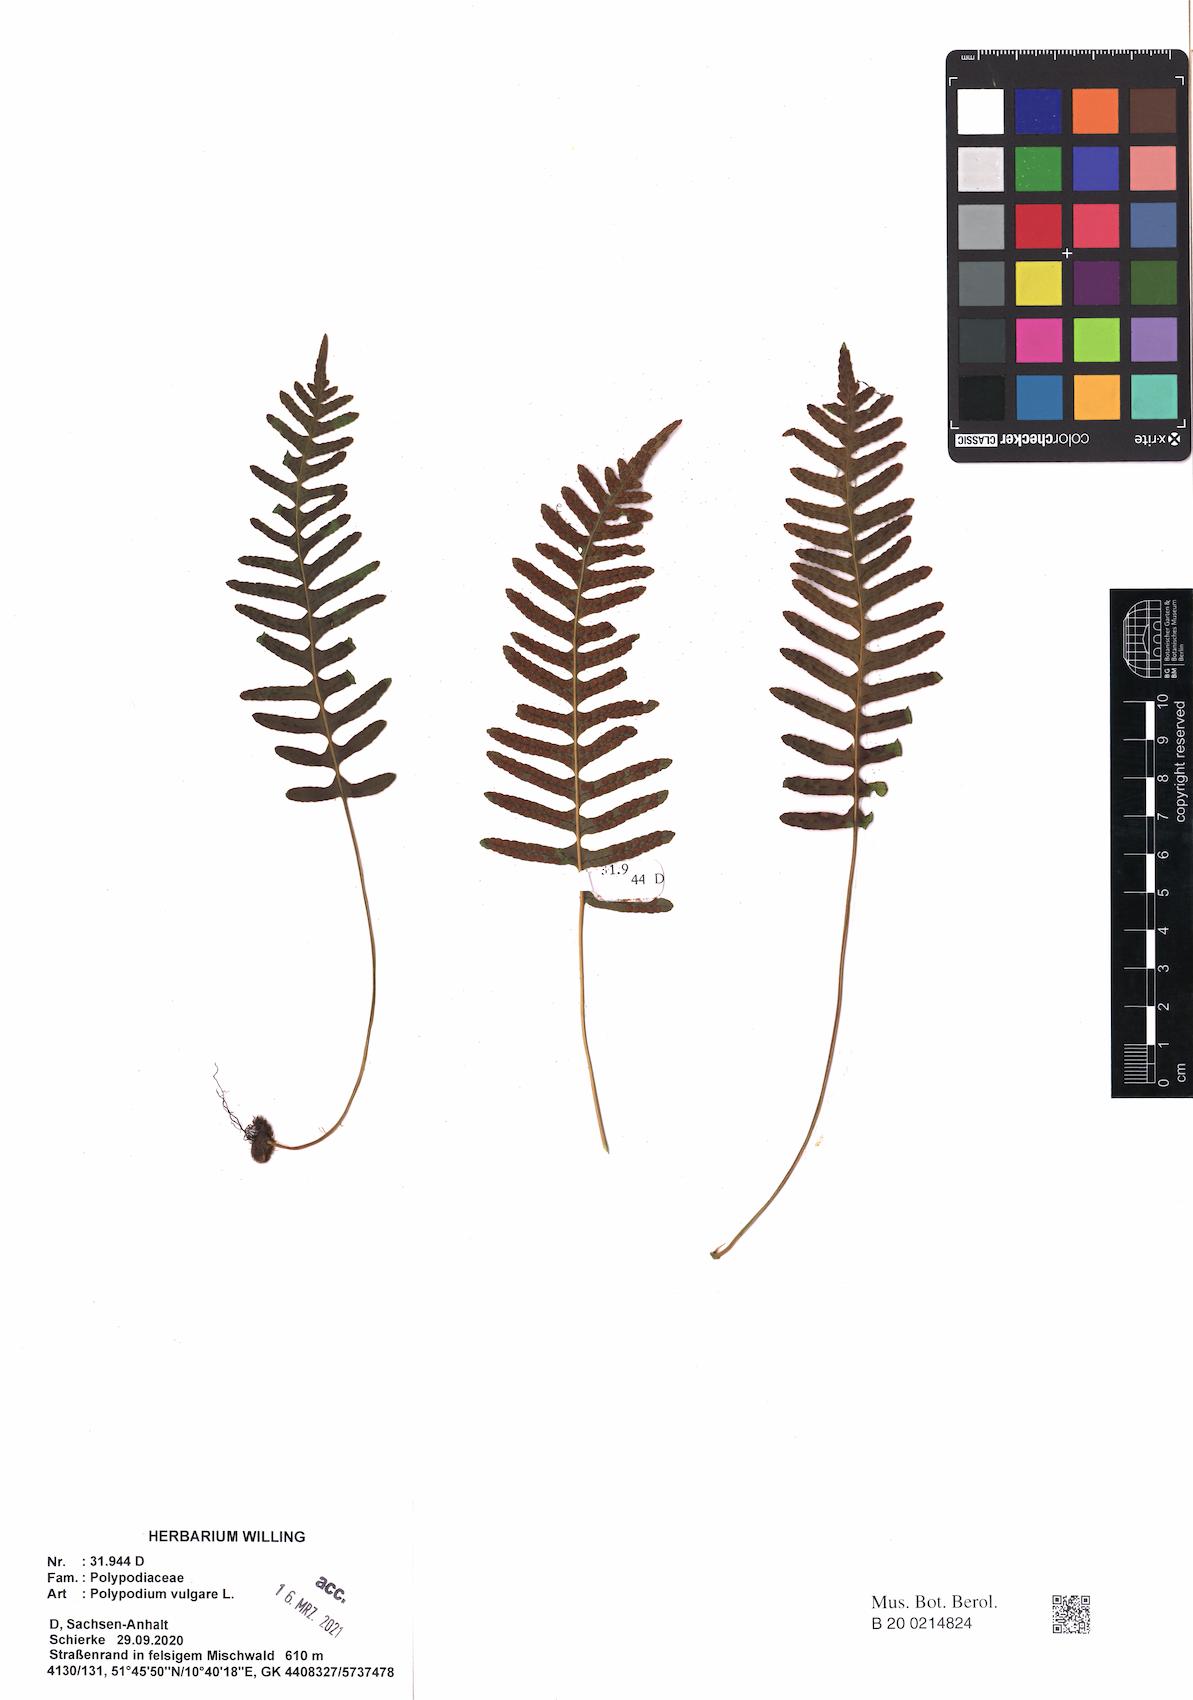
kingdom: Plantae
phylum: Tracheophyta
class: Polypodiopsida
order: Polypodiales
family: Polypodiaceae
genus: Polypodium
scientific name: Polypodium vulgare
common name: Common polypody
